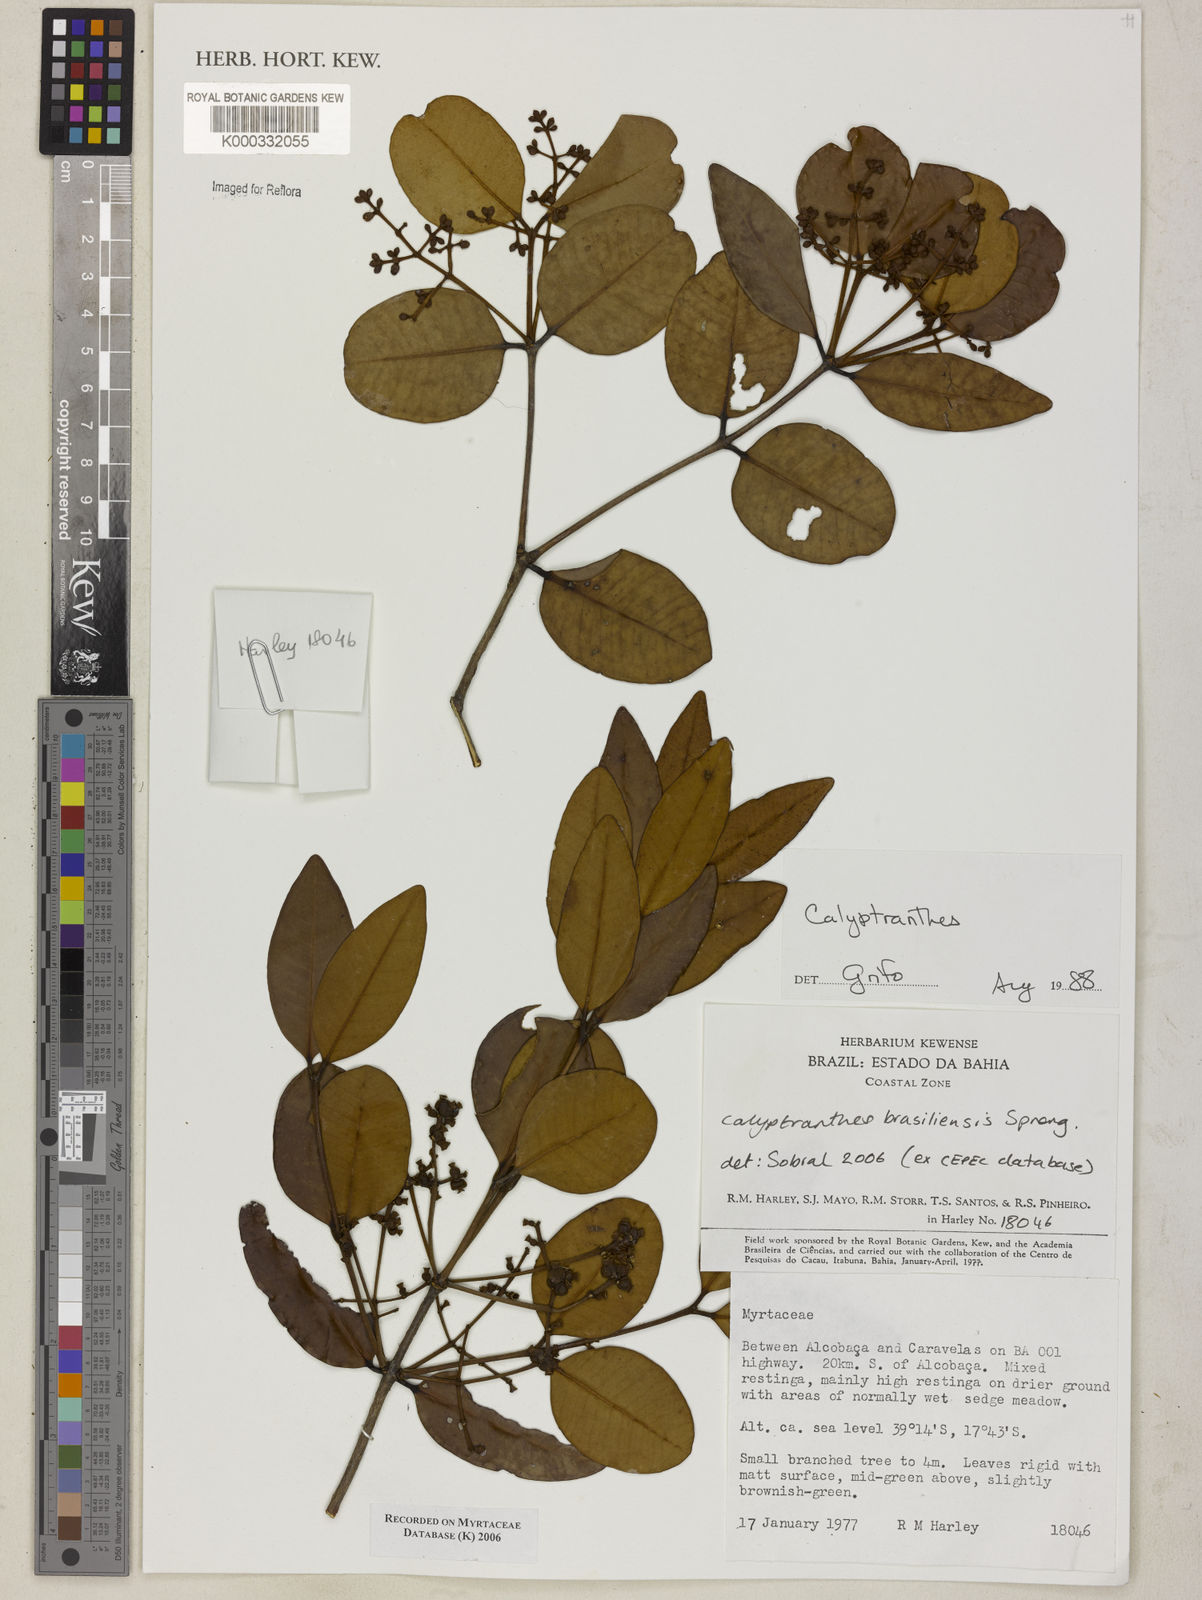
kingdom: Plantae
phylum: Tracheophyta
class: Magnoliopsida
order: Myrtales
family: Myrtaceae
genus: Calyptranthes
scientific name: Calyptranthes
